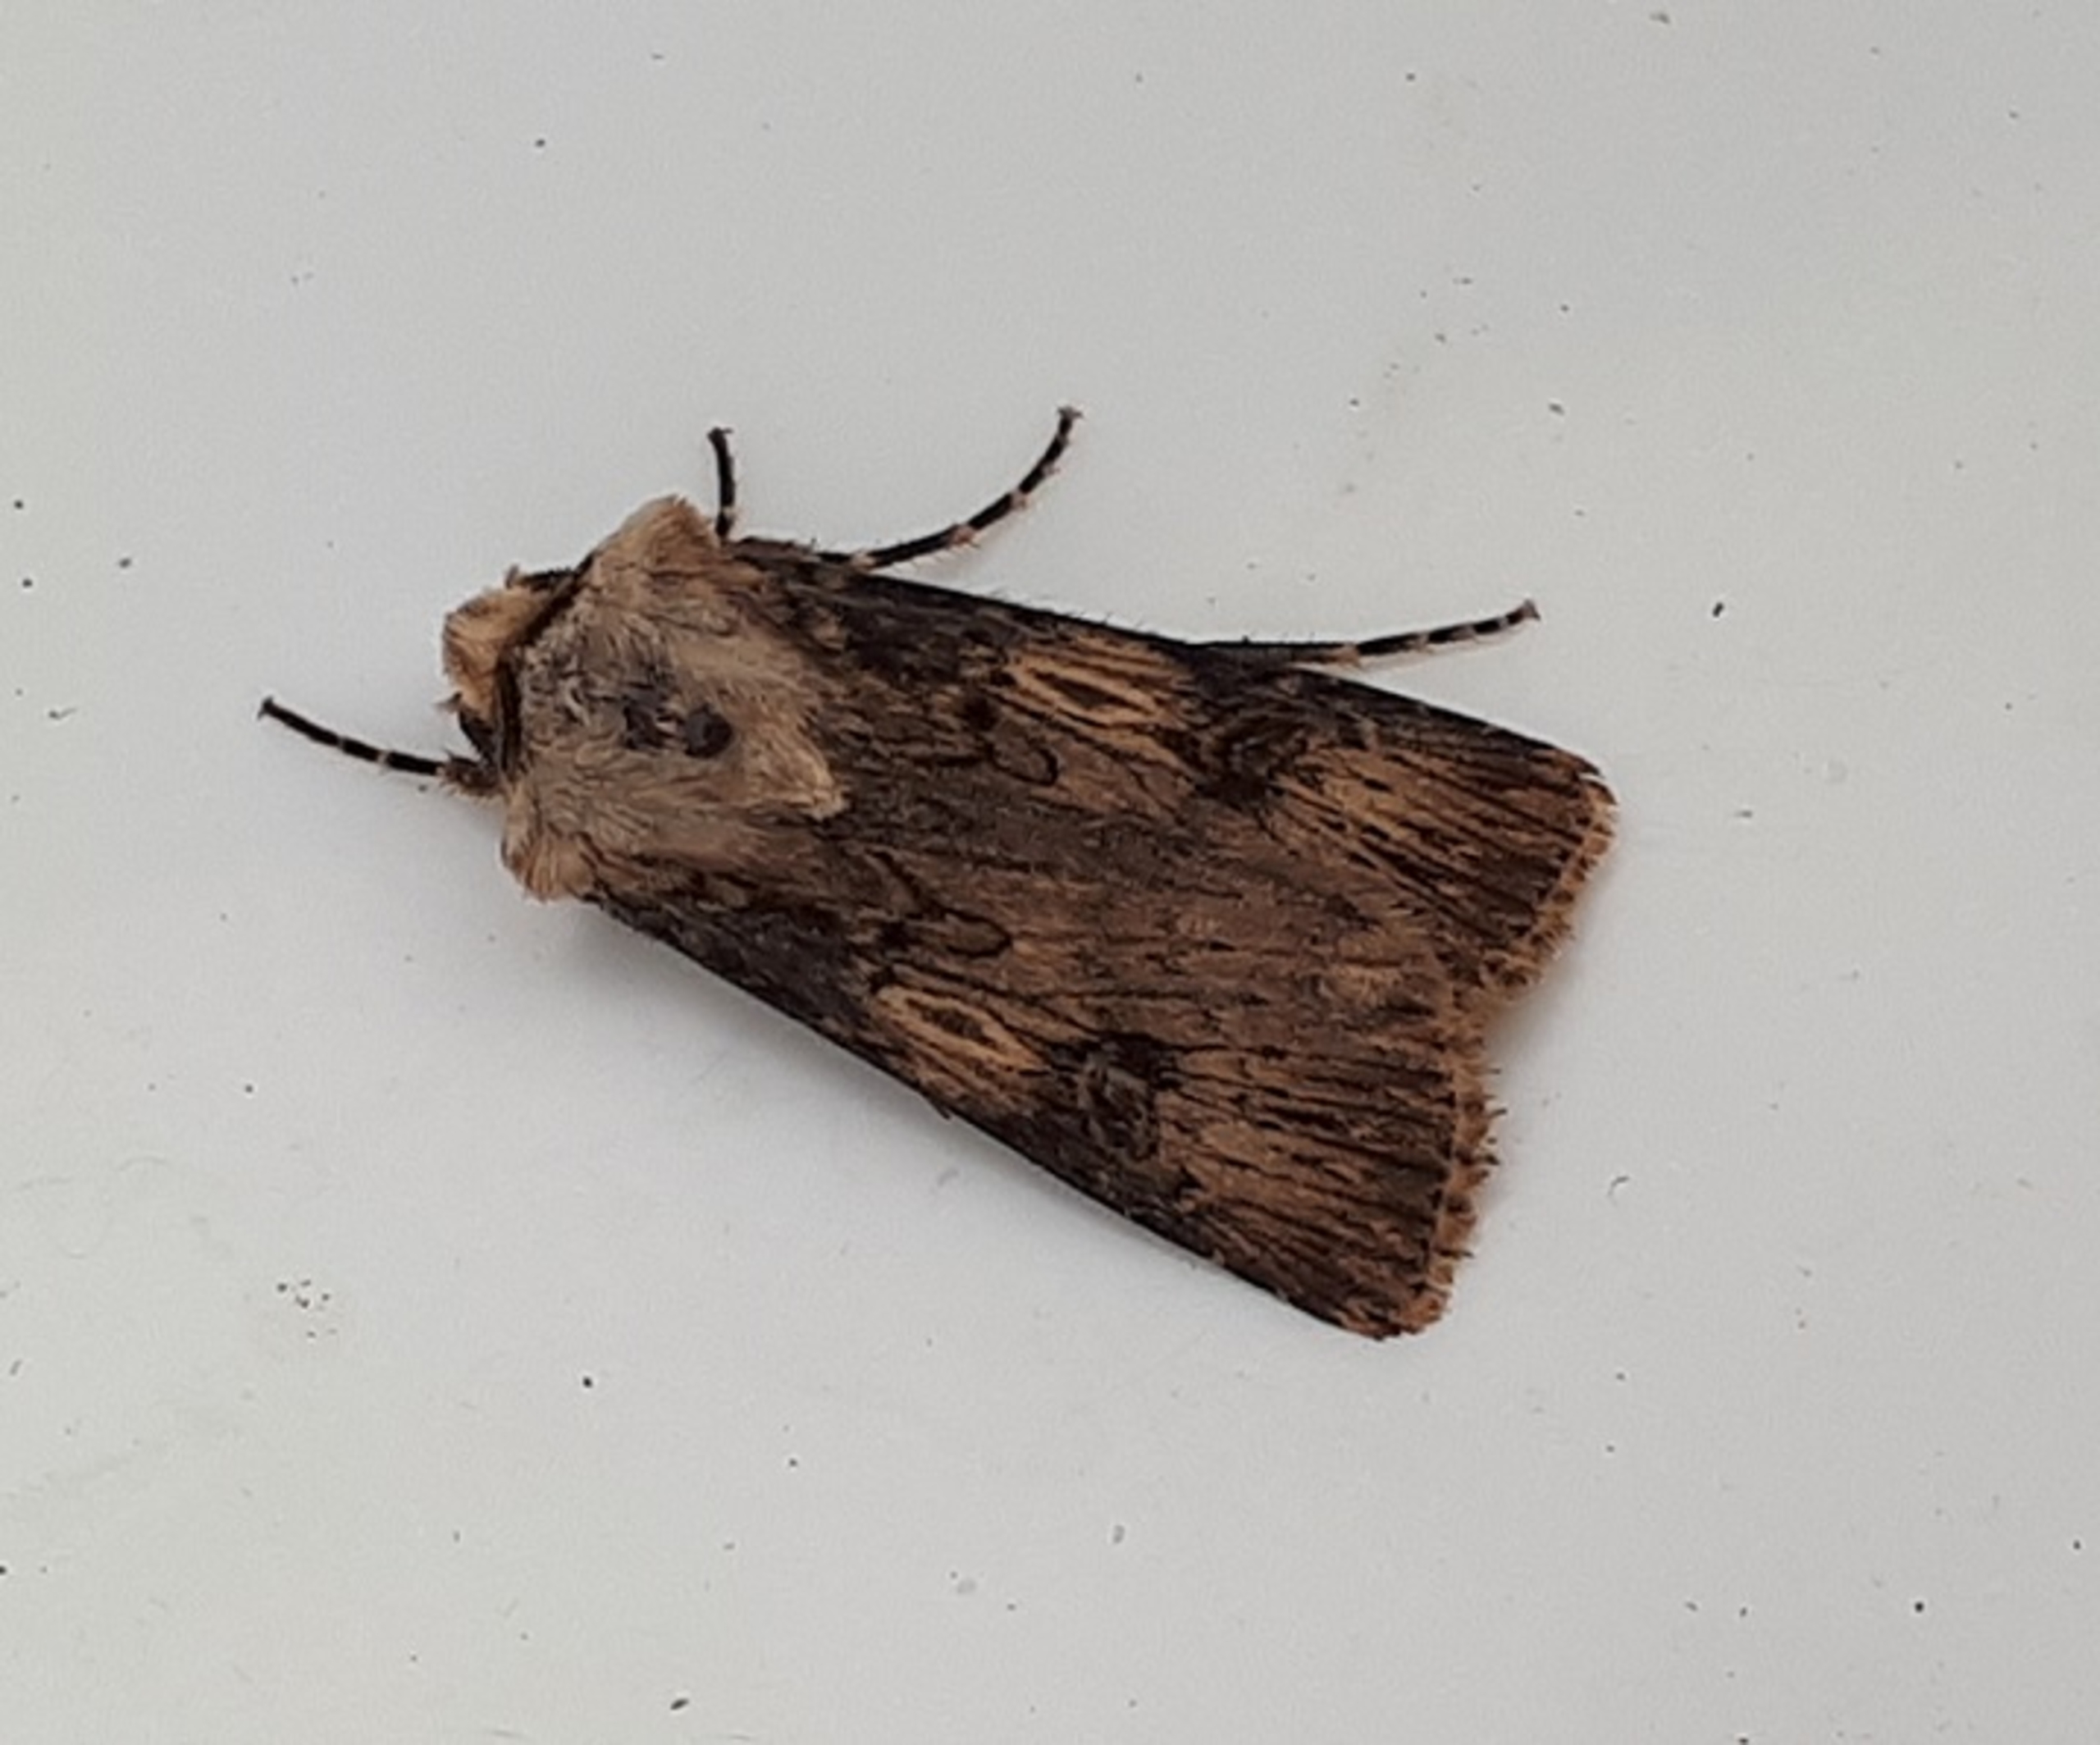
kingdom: Animalia
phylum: Arthropoda
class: Insecta
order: Lepidoptera
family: Noctuidae
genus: Agrotis
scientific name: Agrotis puta
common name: Frønnet landmand
